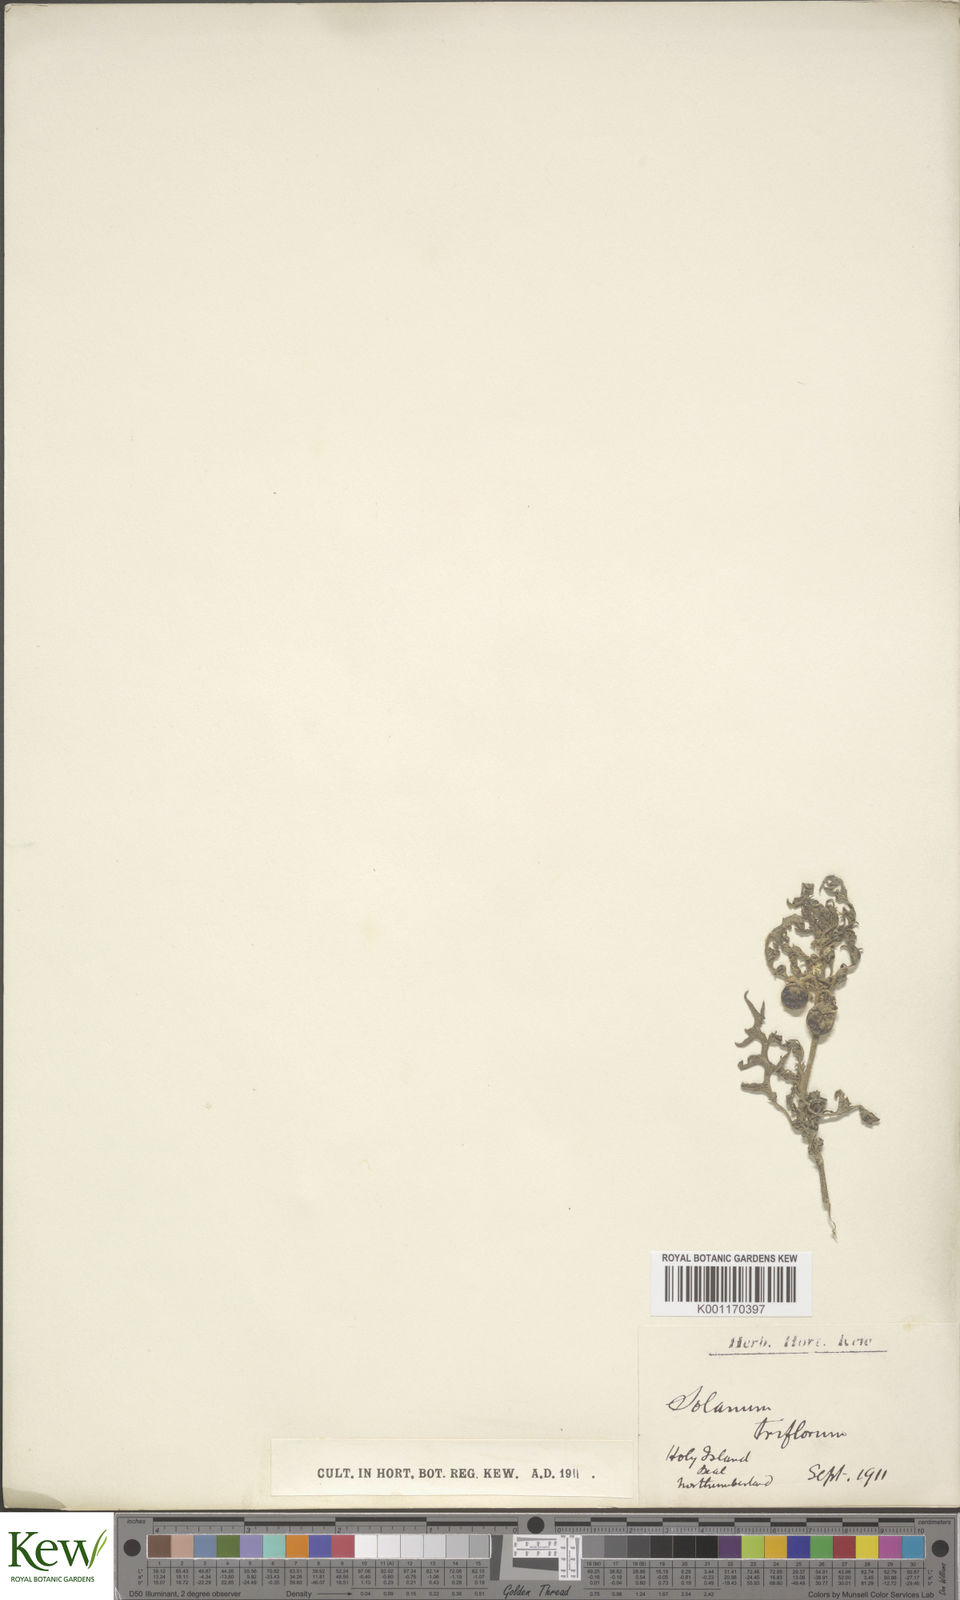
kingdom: Plantae
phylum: Tracheophyta
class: Magnoliopsida
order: Solanales
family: Solanaceae
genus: Solanum
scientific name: Solanum triflorum
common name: Small nightshade
